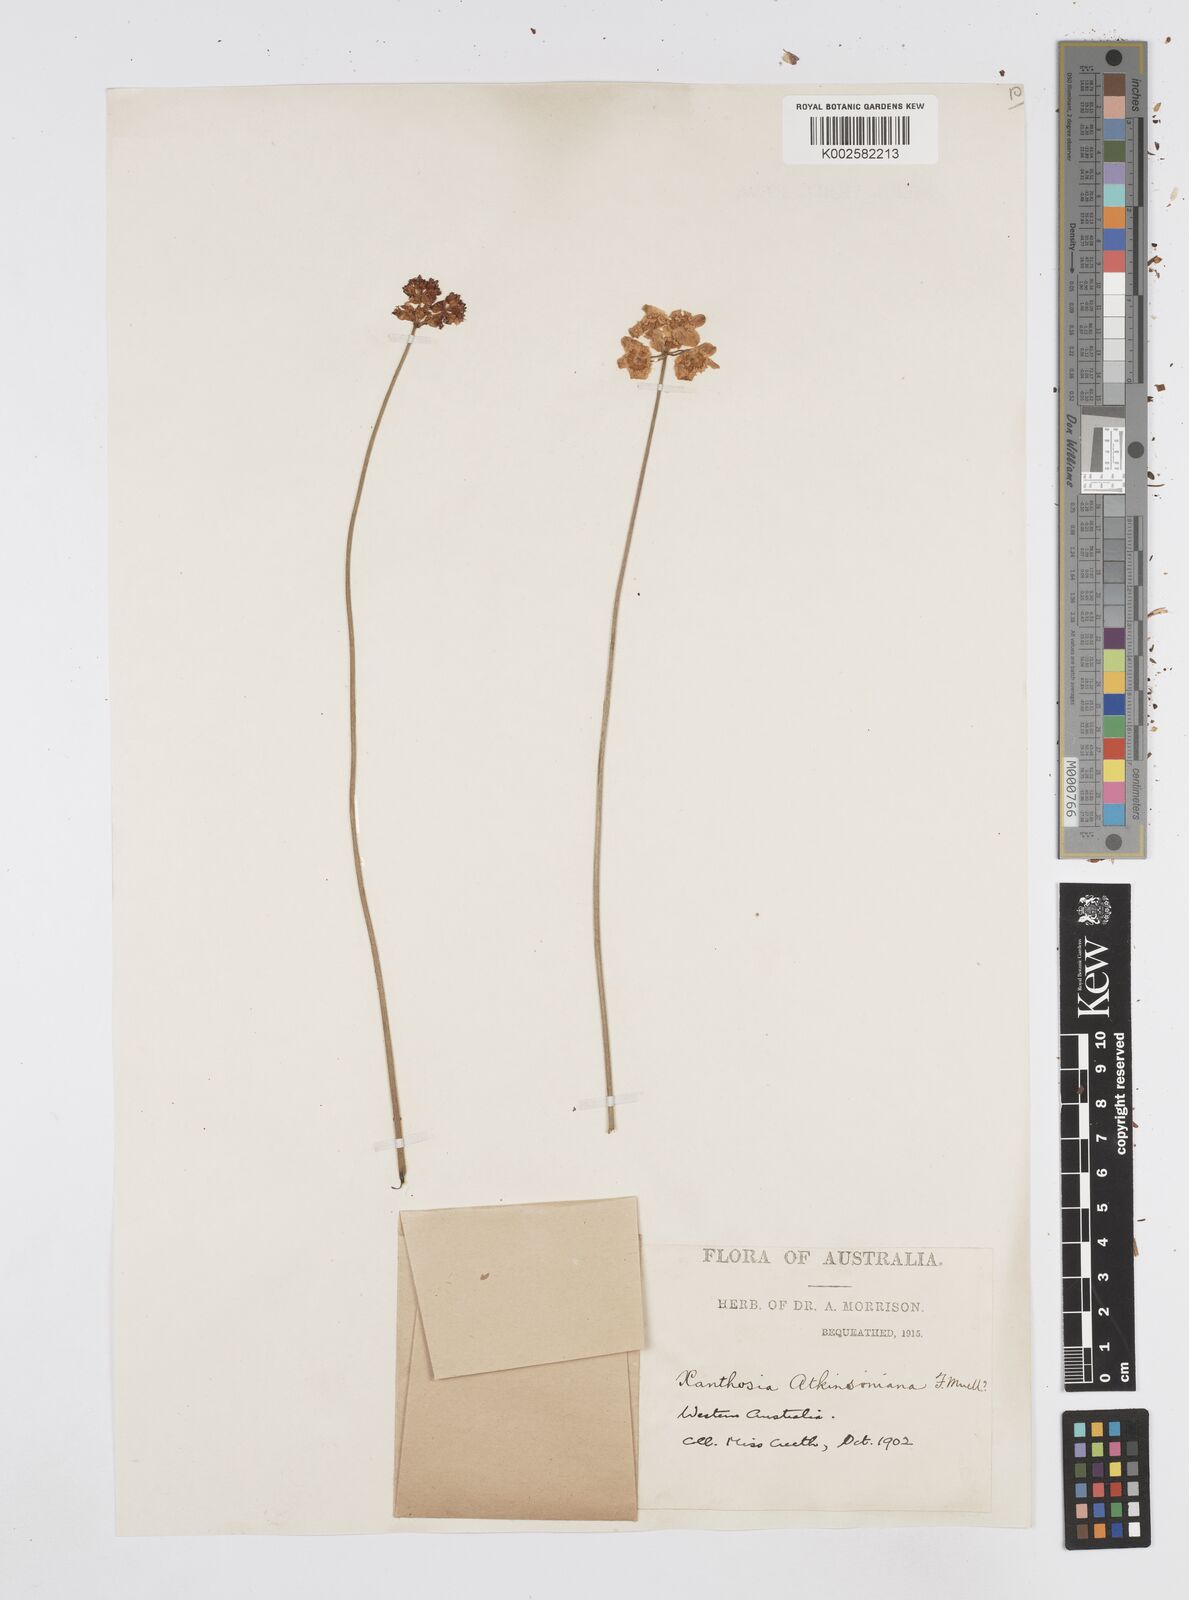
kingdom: Plantae
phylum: Tracheophyta
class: Magnoliopsida
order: Apiales
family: Apiaceae
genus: Xanthosia
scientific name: Xanthosia atkinsoniana
